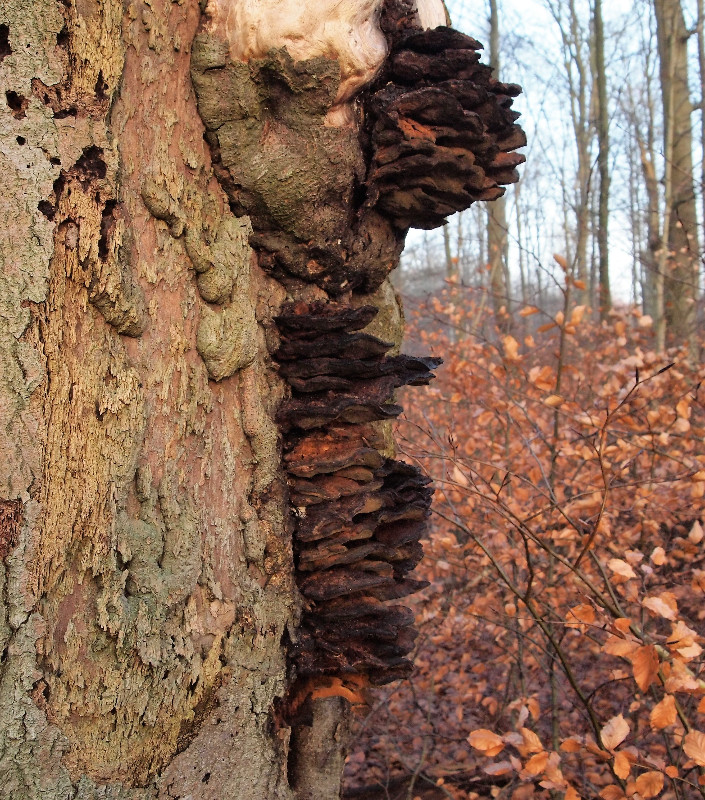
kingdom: Fungi
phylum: Basidiomycota
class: Agaricomycetes
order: Hymenochaetales
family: Hymenochaetaceae
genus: Inonotus
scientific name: Inonotus cuticularis
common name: kroghåret spejlporesvamp
